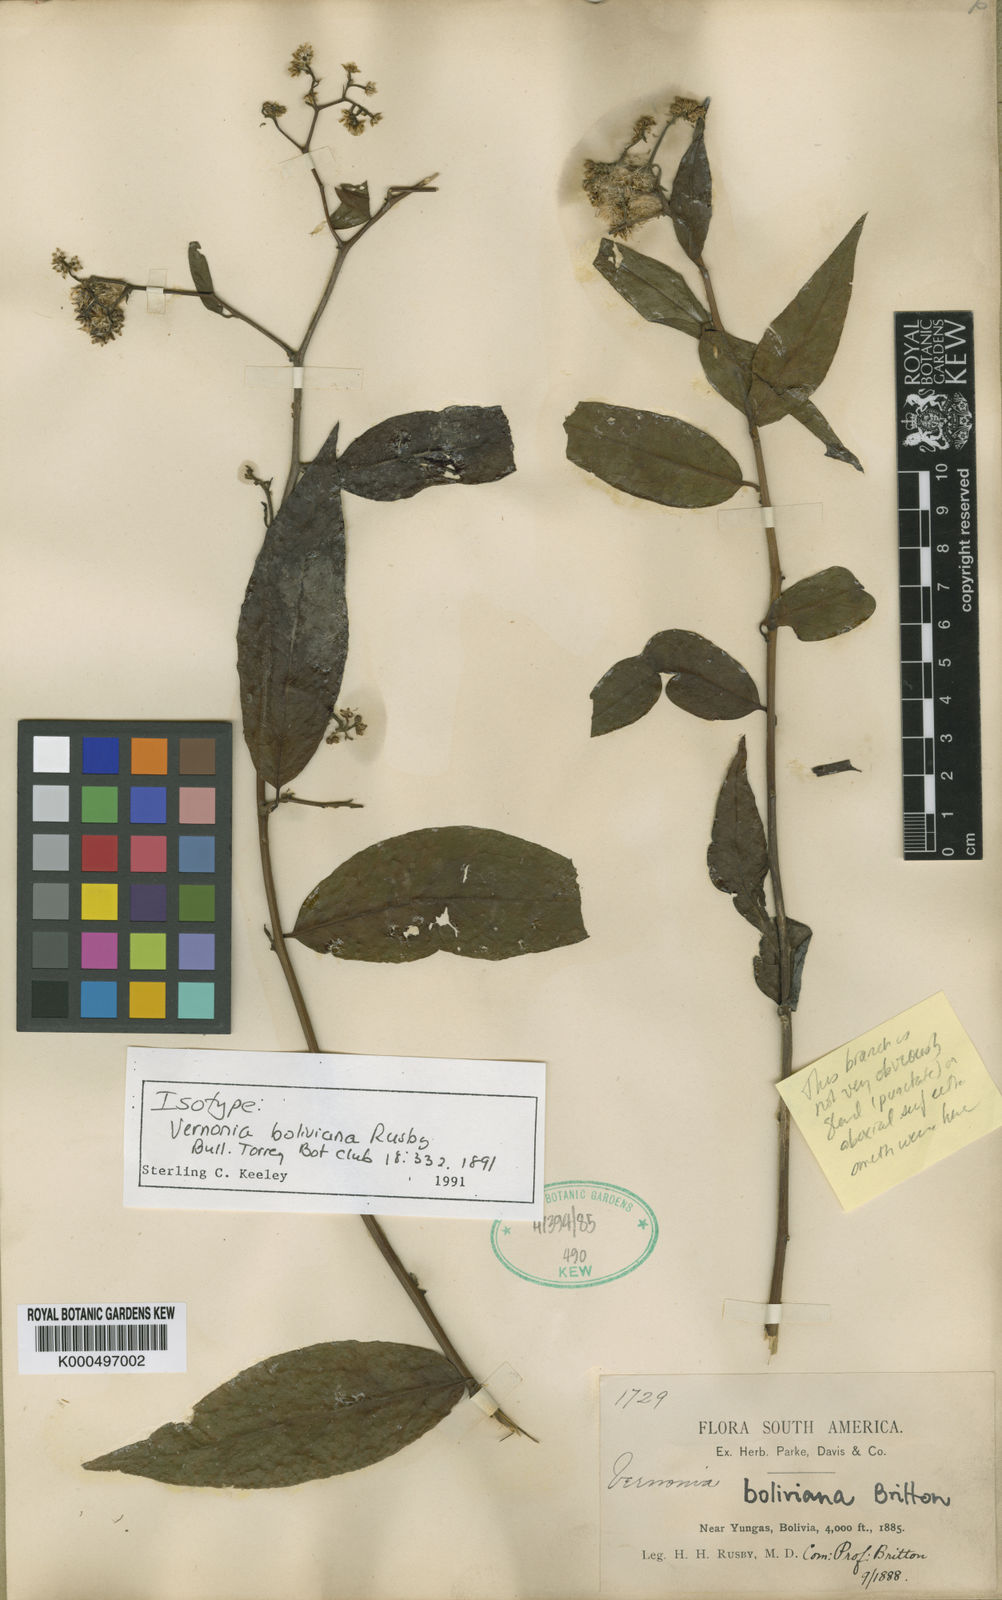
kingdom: Plantae
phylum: Tracheophyta
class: Magnoliopsida
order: Asterales
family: Asteraceae
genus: Critoniopsis
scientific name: Critoniopsis boliviana
